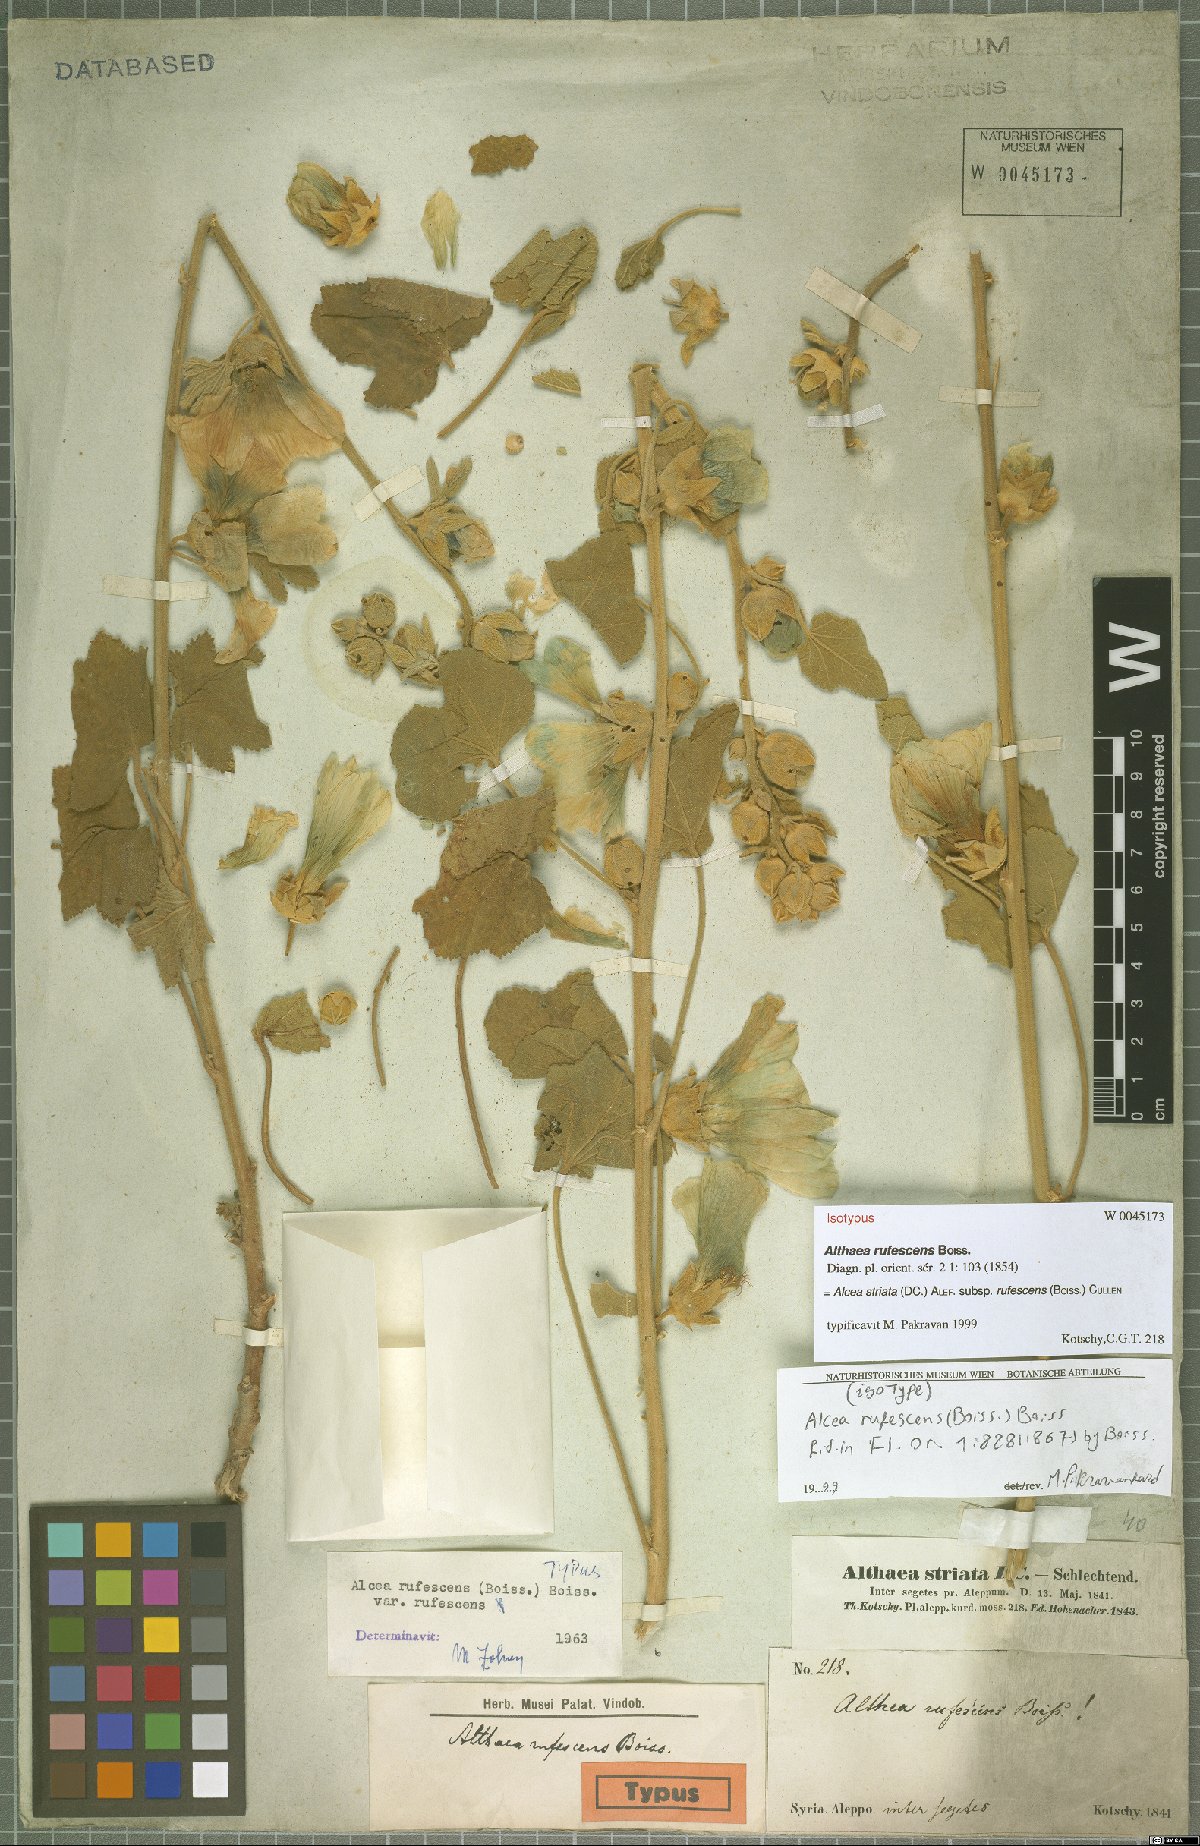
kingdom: Plantae
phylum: Tracheophyta
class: Magnoliopsida
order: Malvales
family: Malvaceae
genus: Alcea
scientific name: Alcea rufescens
